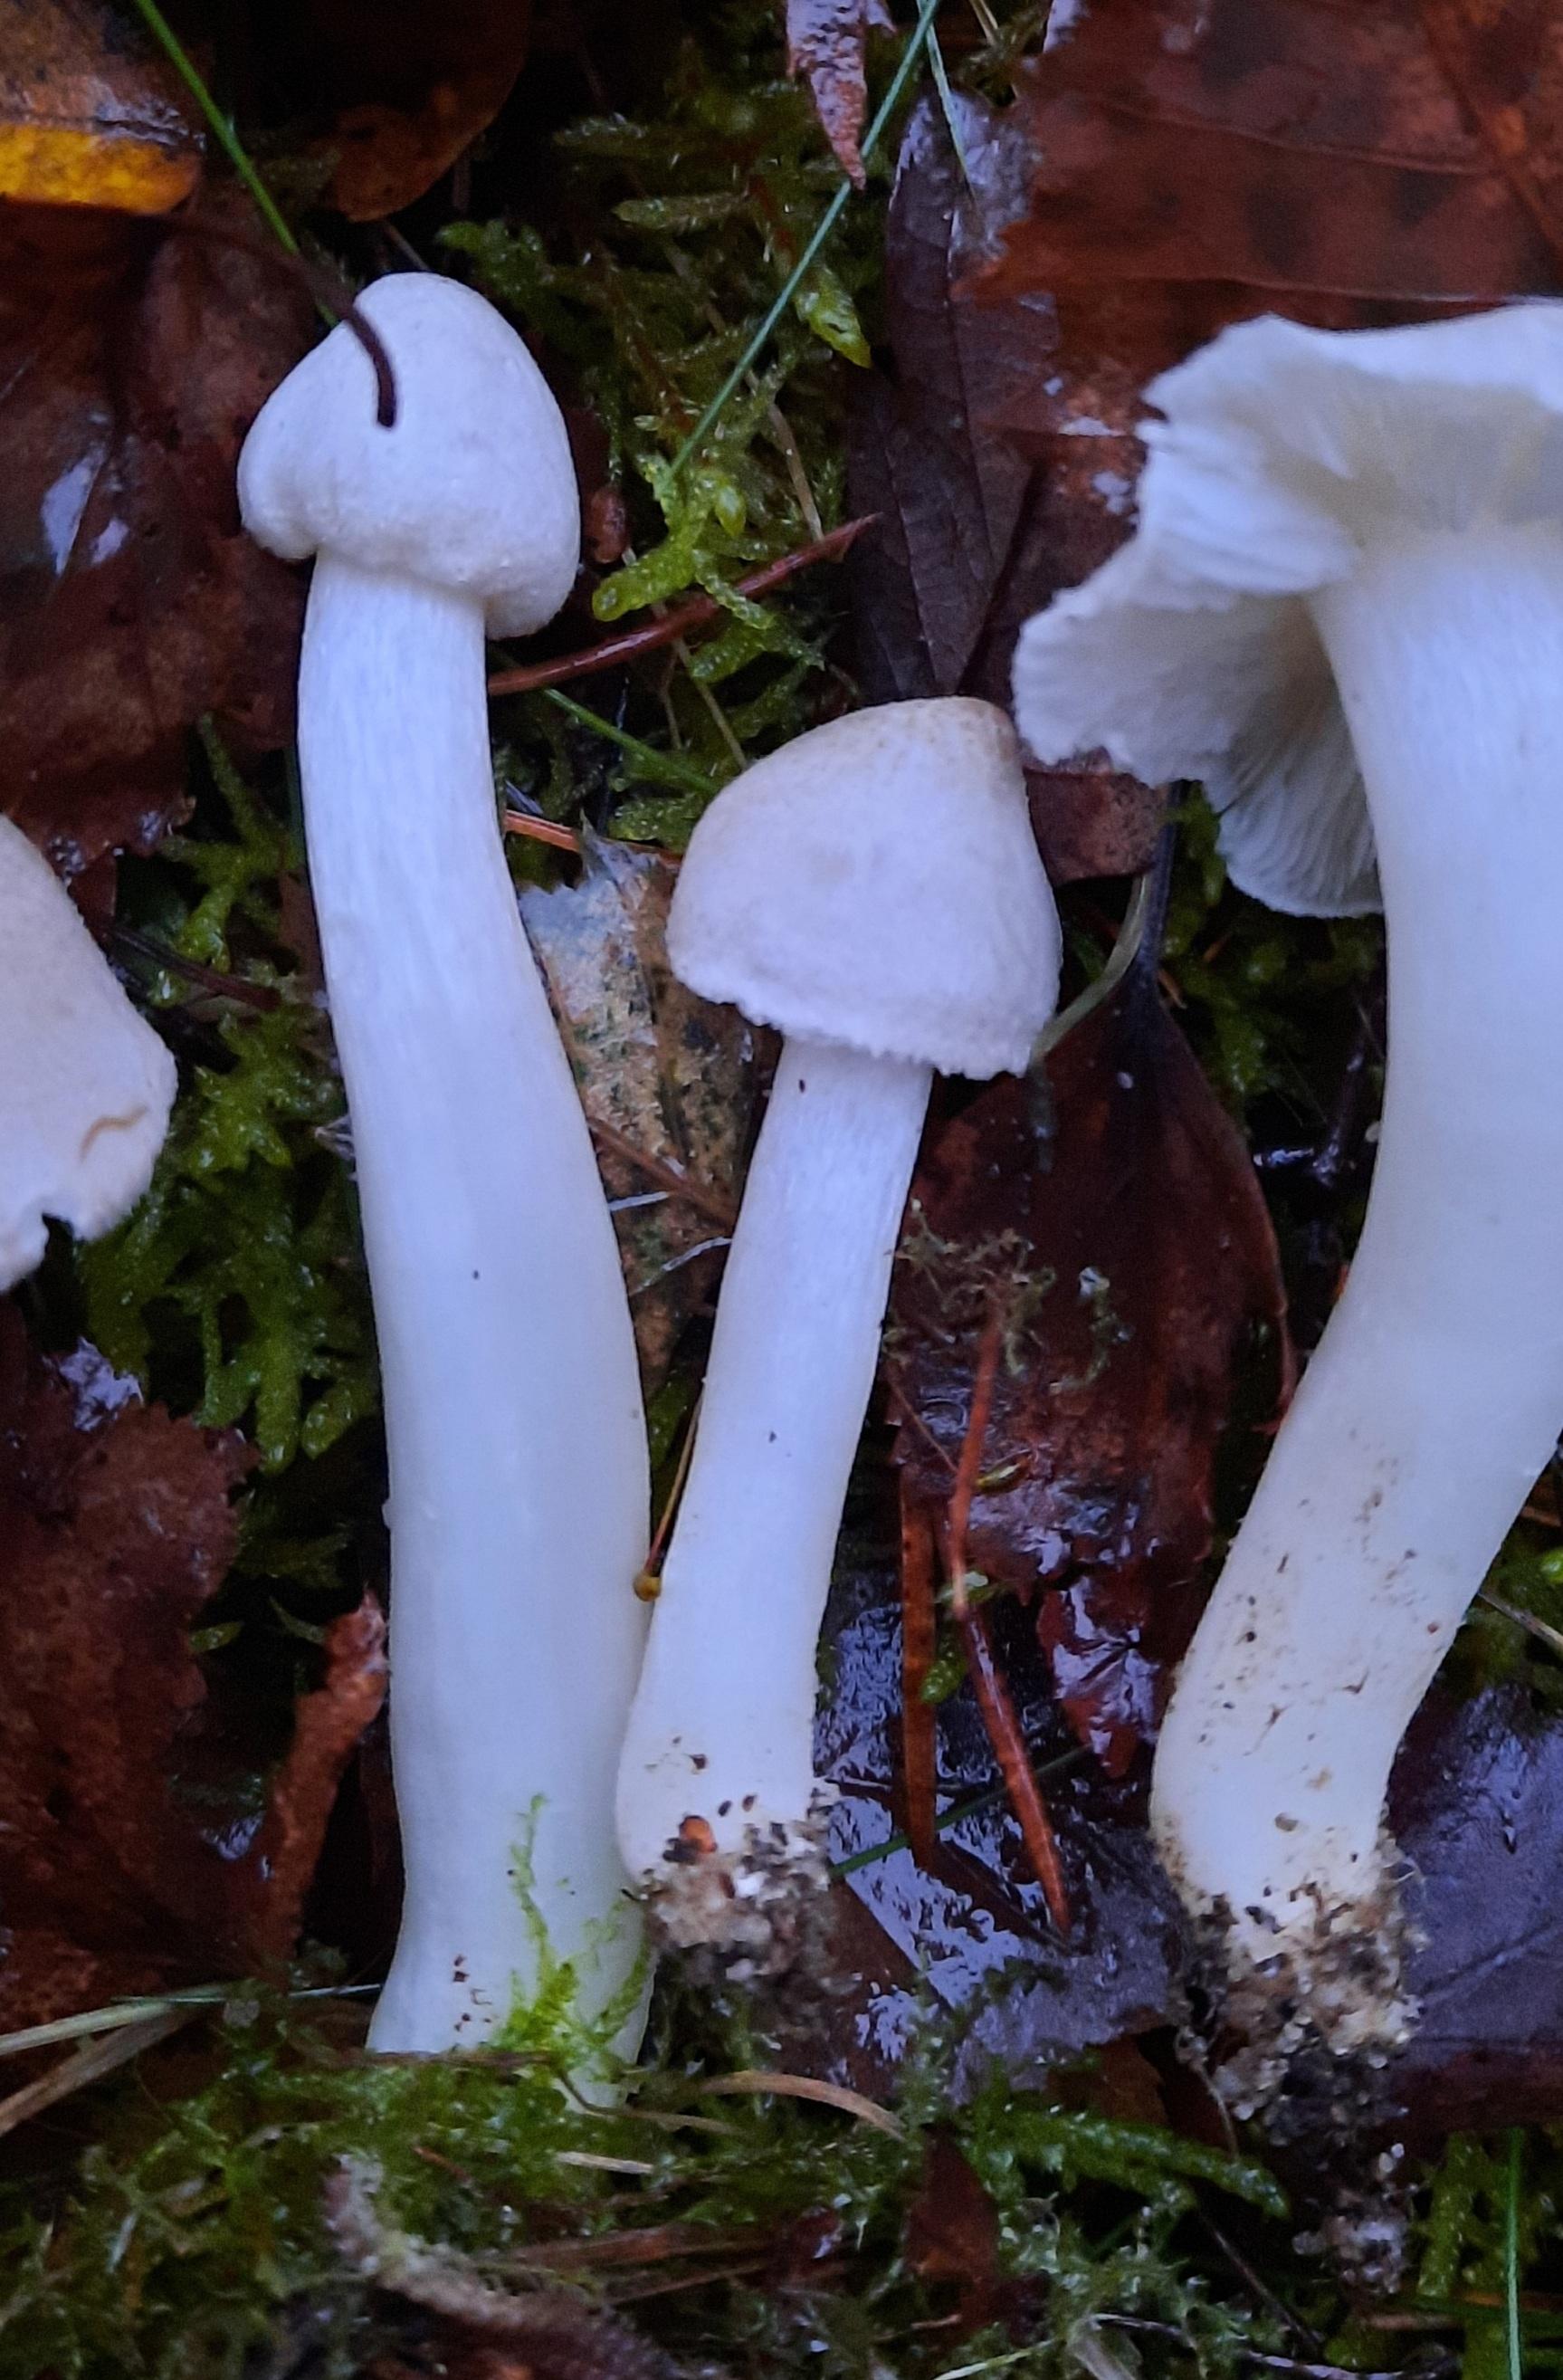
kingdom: Fungi
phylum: Basidiomycota
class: Agaricomycetes
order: Agaricales
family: Tricholomataceae
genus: Tricholoma
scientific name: Tricholoma argyraceum
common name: spids ridderhat
